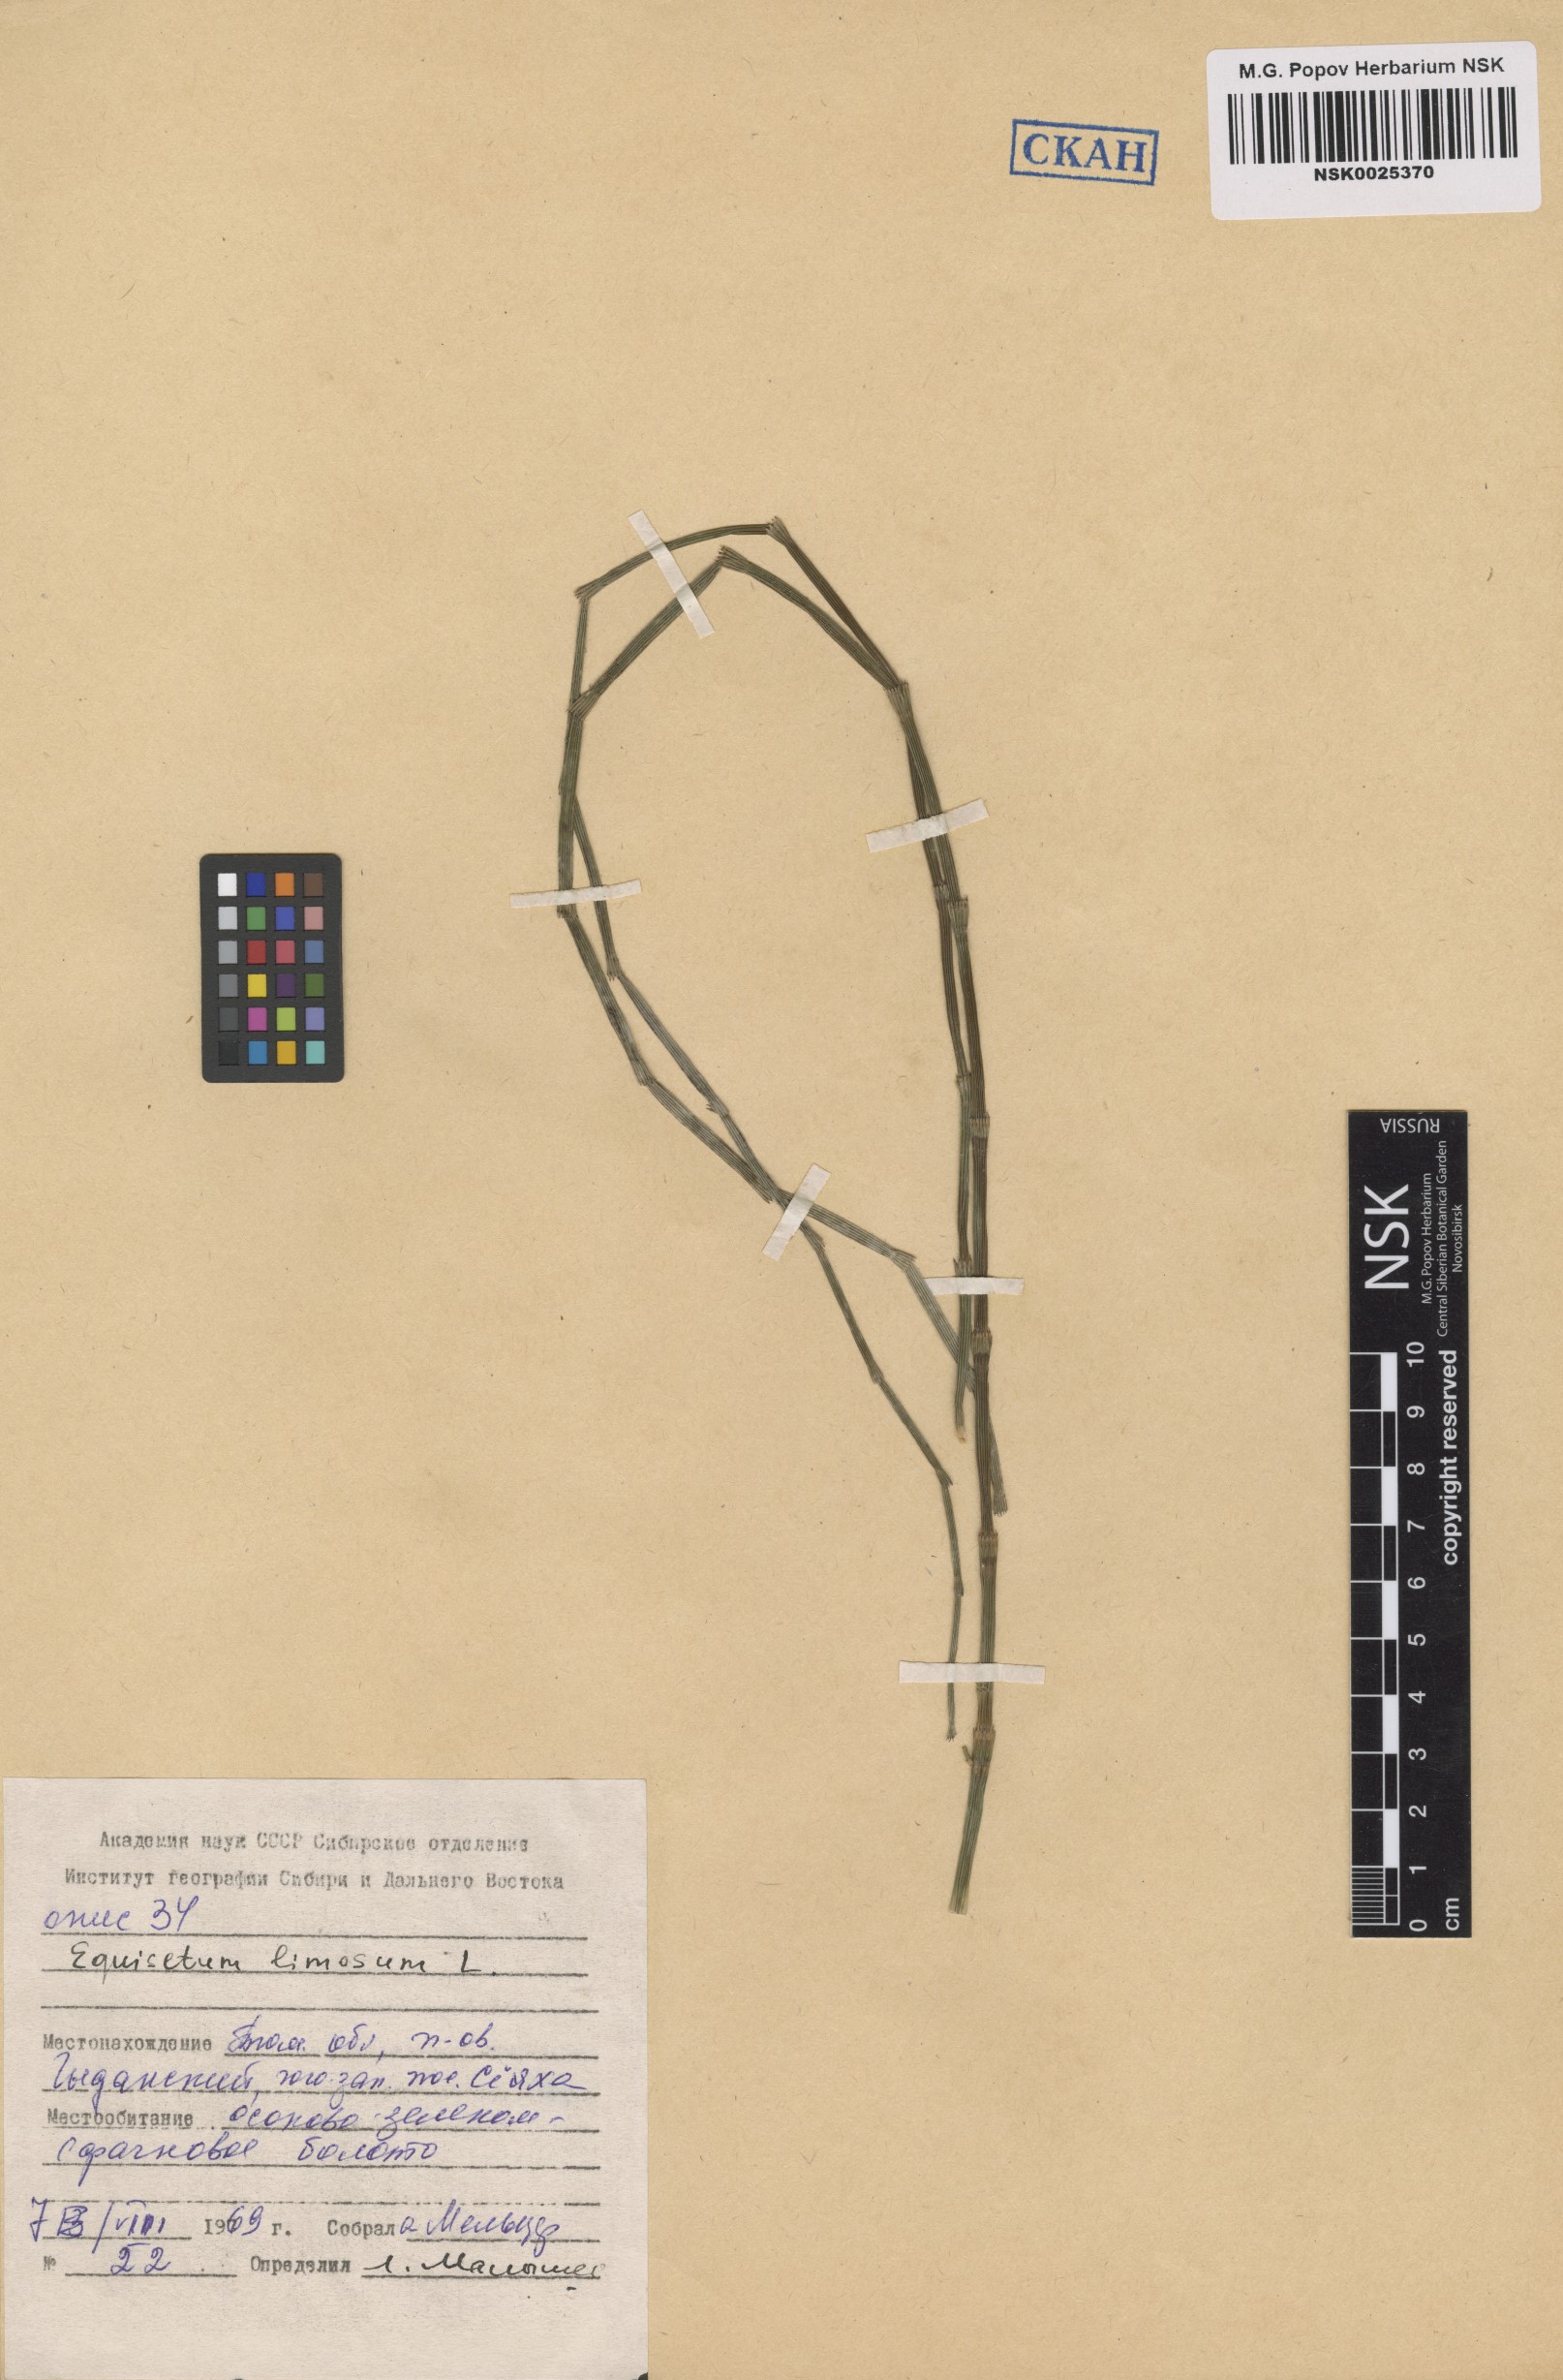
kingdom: Plantae
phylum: Tracheophyta
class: Polypodiopsida
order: Equisetales
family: Equisetaceae
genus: Equisetum
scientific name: Equisetum fluviatile
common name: Water horsetail
